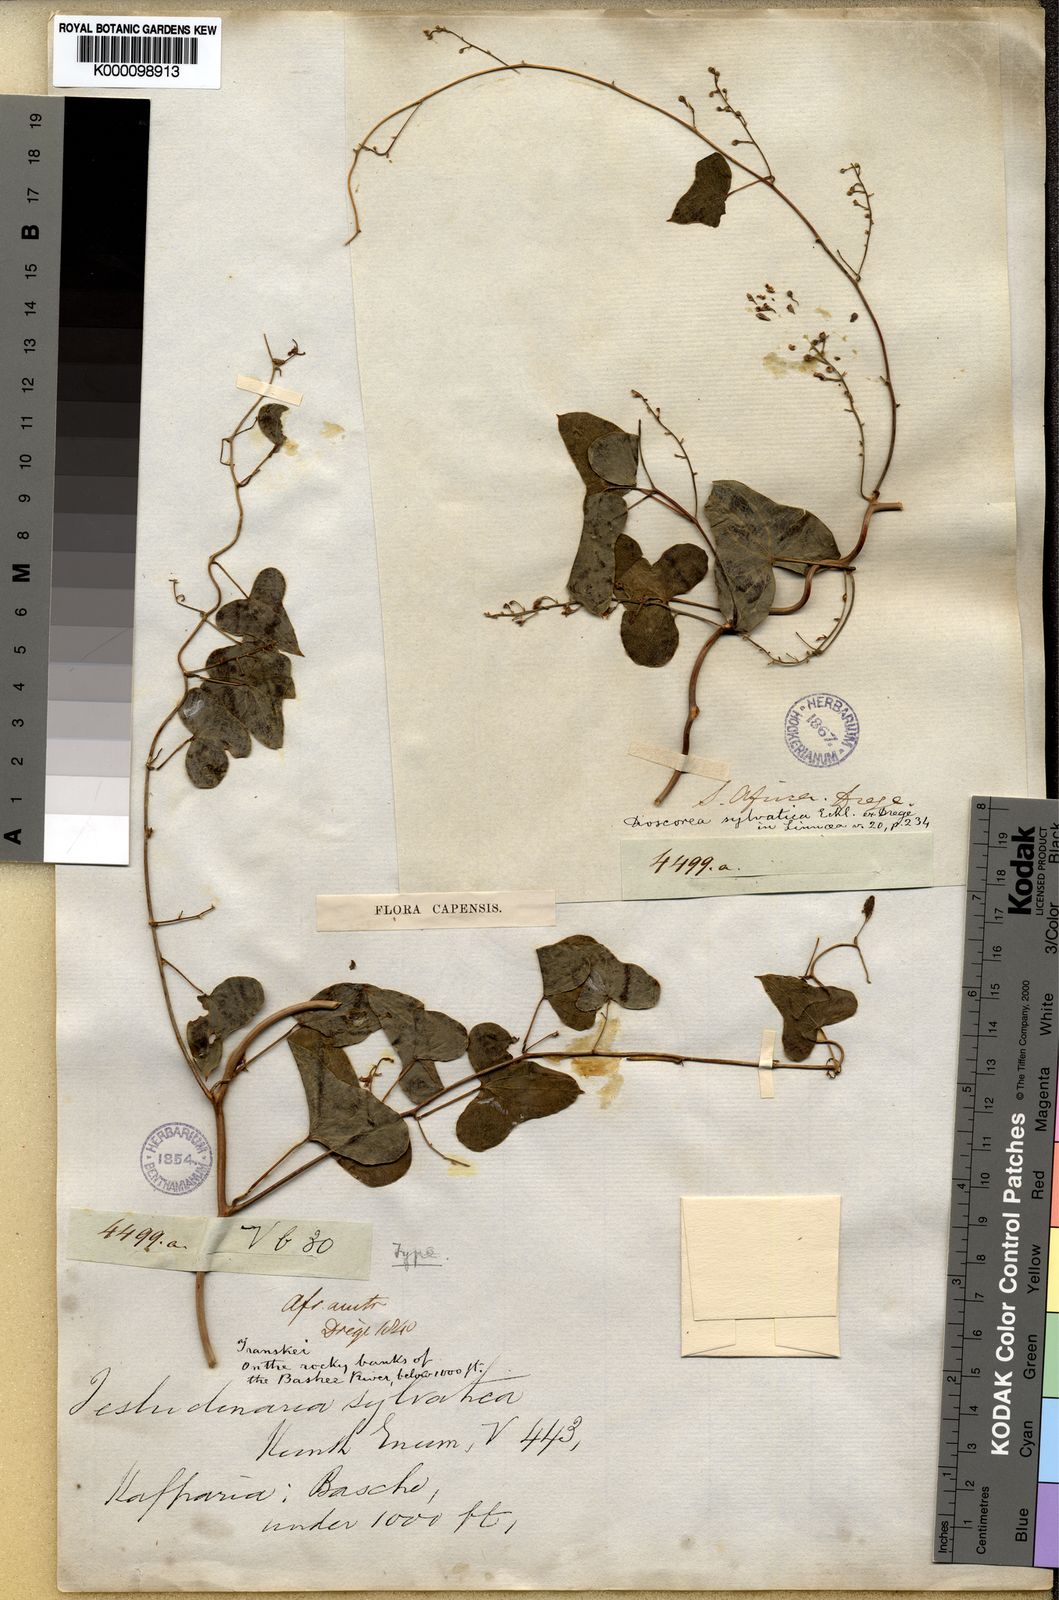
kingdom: Plantae
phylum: Tracheophyta
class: Liliopsida
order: Dioscoreales
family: Dioscoreaceae
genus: Dioscorea
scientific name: Dioscorea sylvatica
